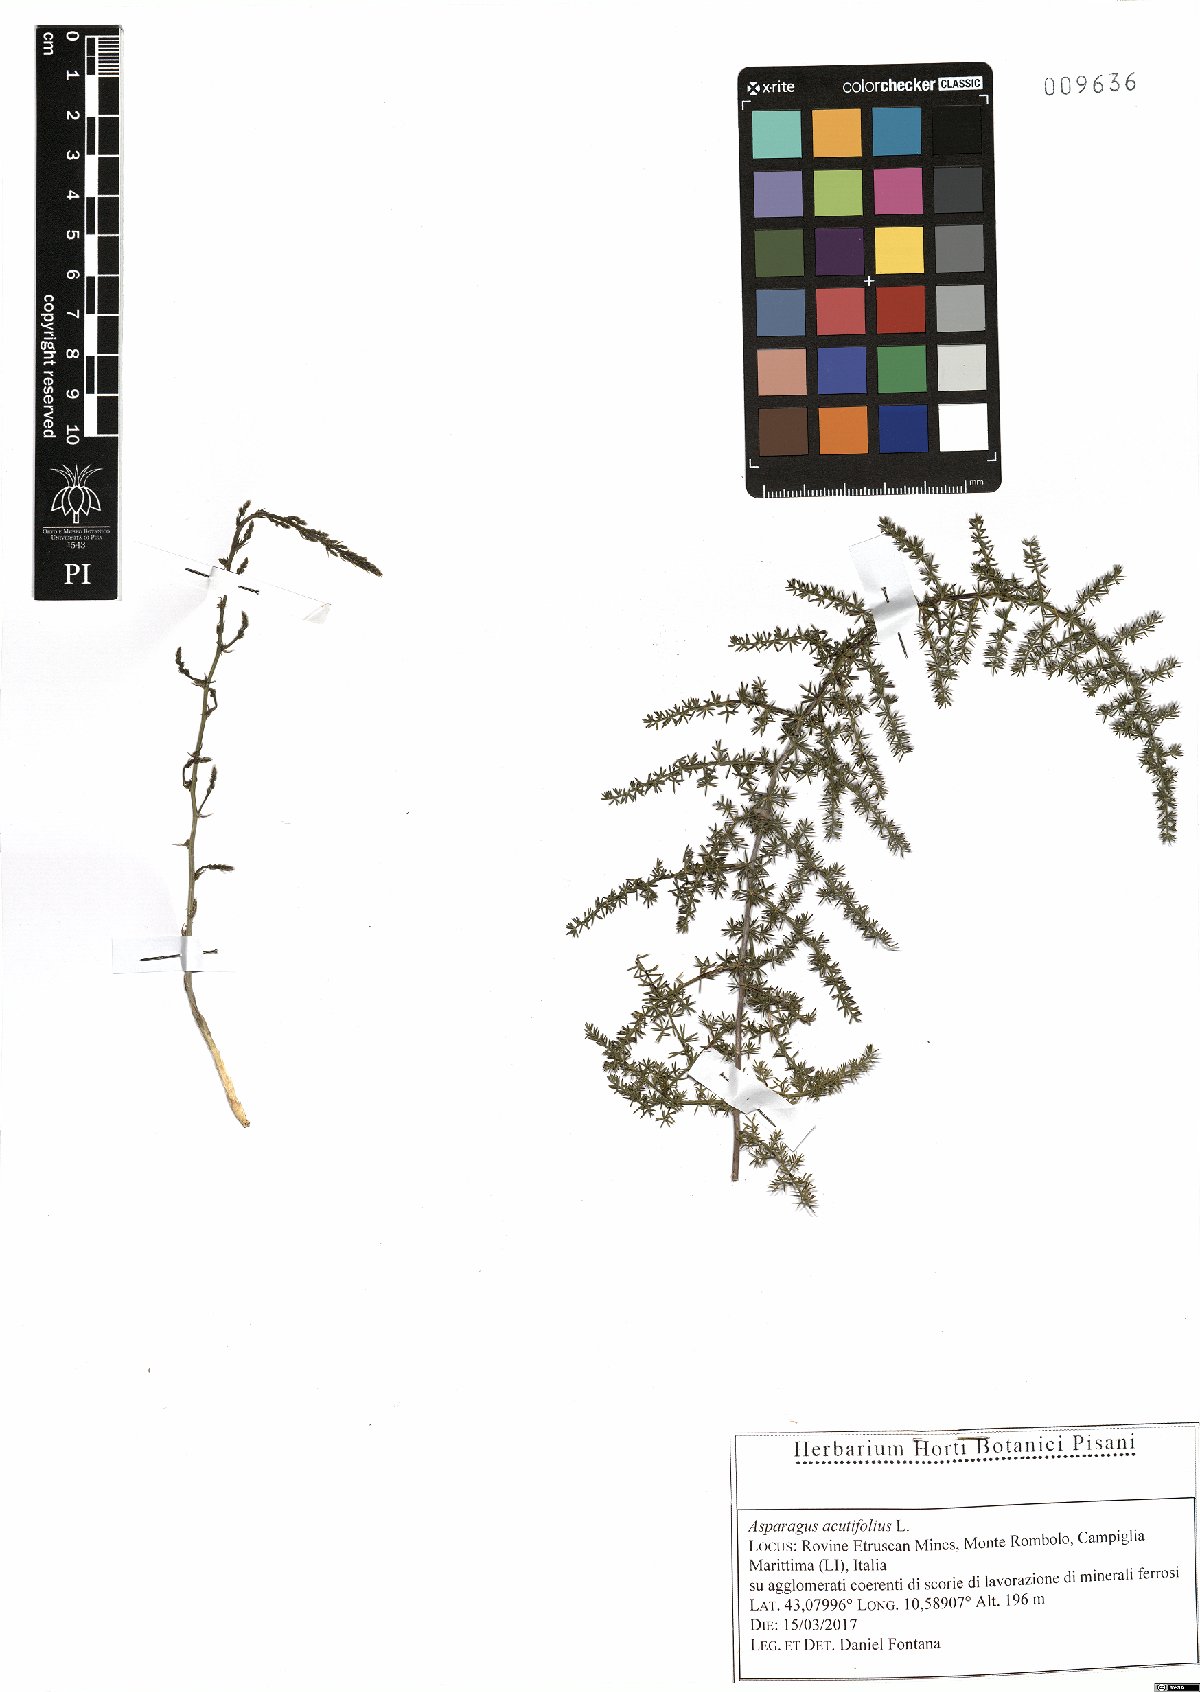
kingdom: Plantae
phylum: Tracheophyta
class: Liliopsida
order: Asparagales
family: Asparagaceae
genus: Asparagus
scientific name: Asparagus acutifolius
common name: Wild asparagus
